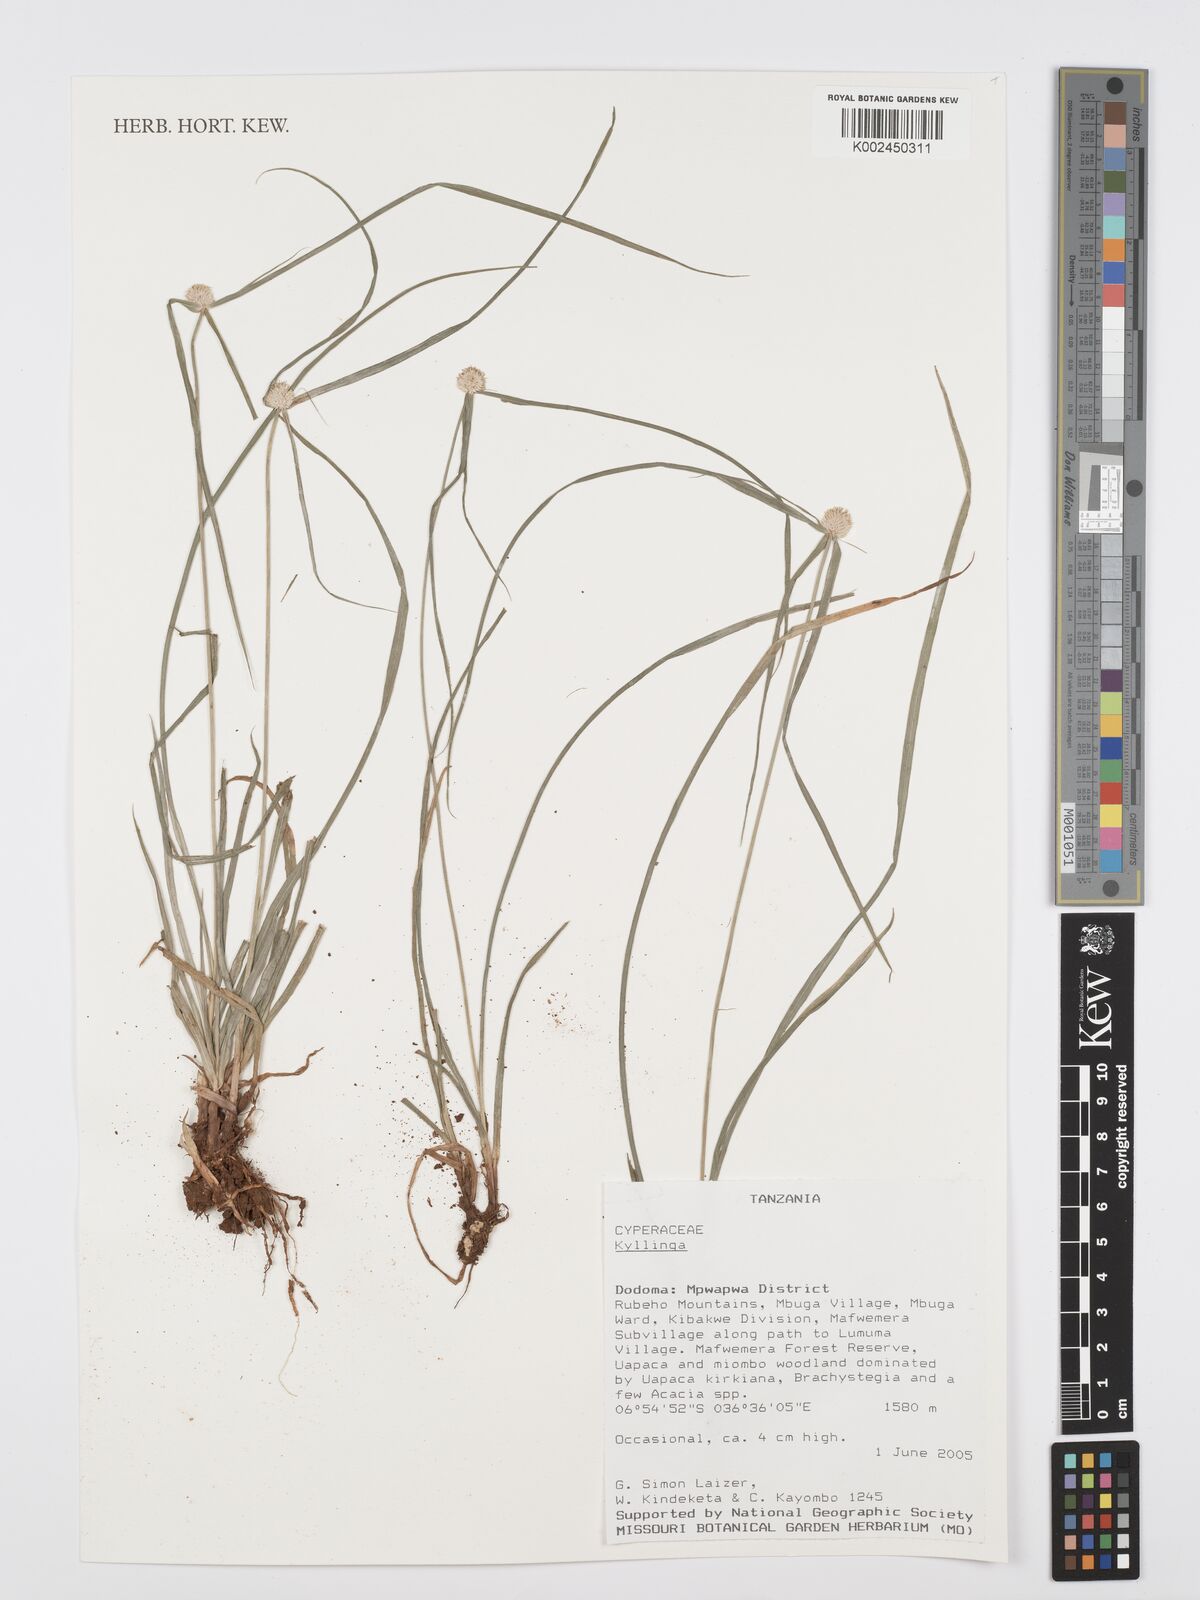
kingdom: Plantae
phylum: Tracheophyta
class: Liliopsida
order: Poales
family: Cyperaceae
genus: Cyperus
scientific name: Cyperus
